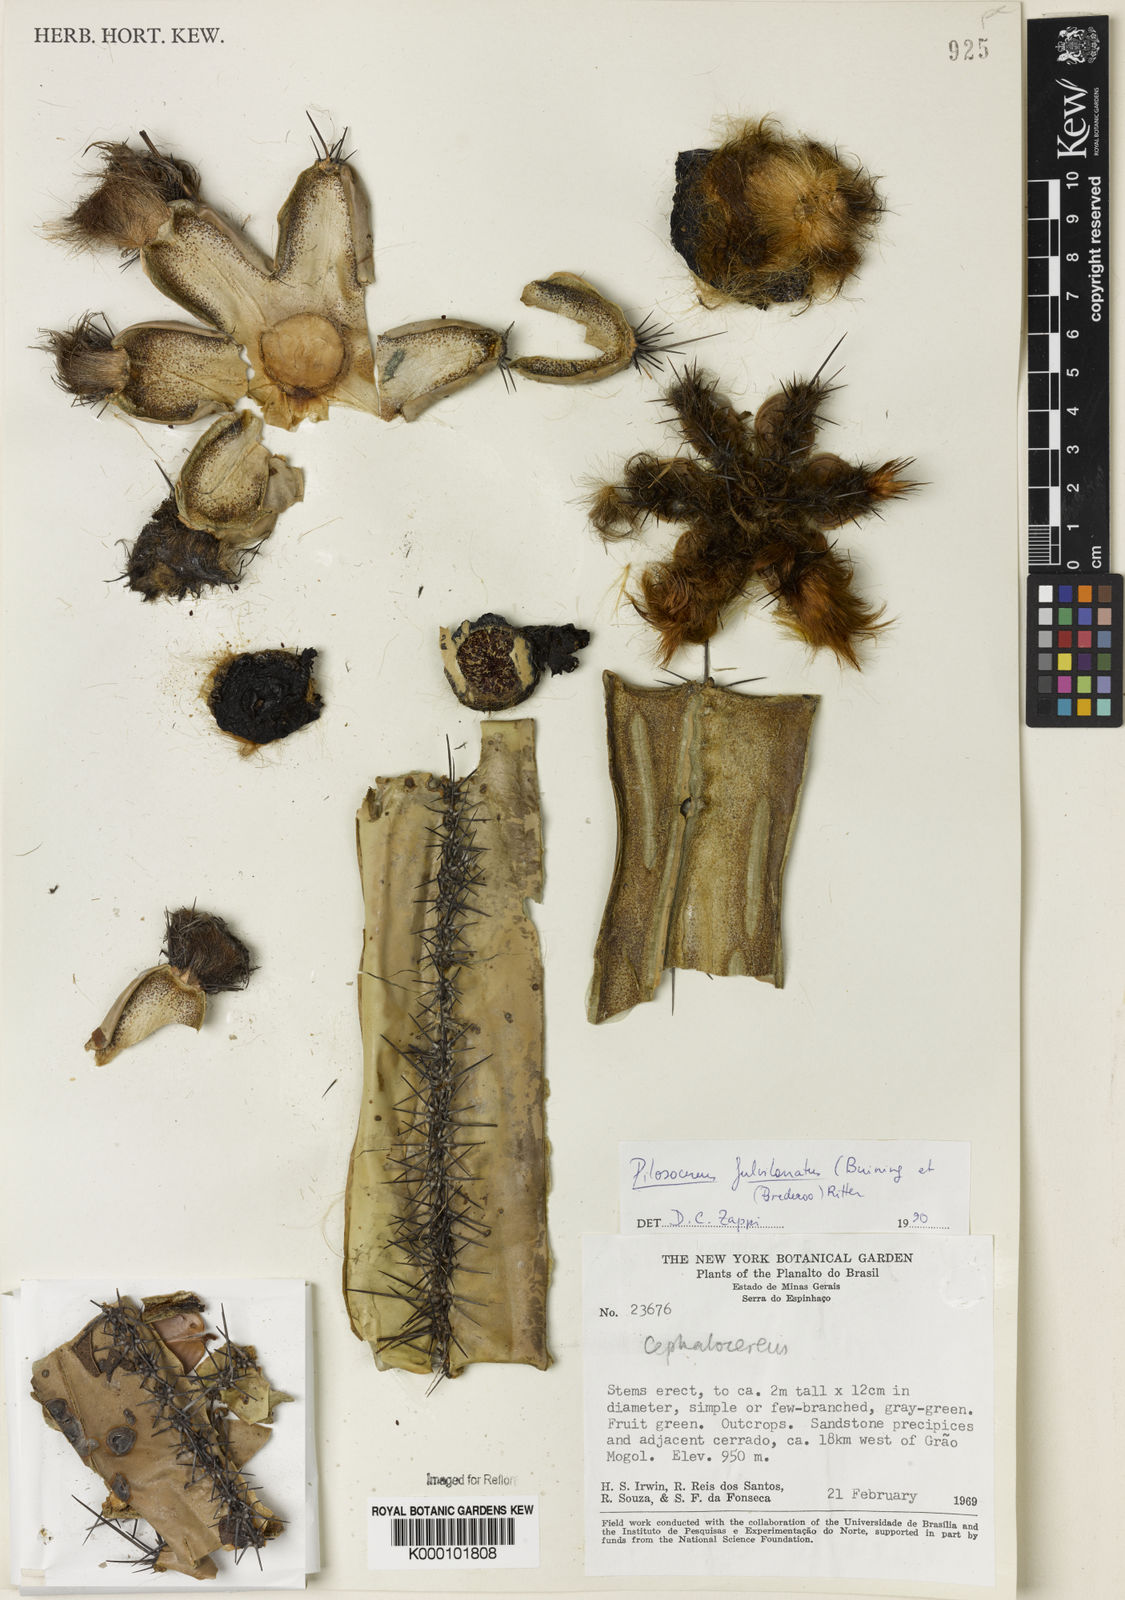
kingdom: Plantae
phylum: Tracheophyta
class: Magnoliopsida
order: Caryophyllales
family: Cactaceae
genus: Pilosocereus
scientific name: Pilosocereus fulvilanatus
